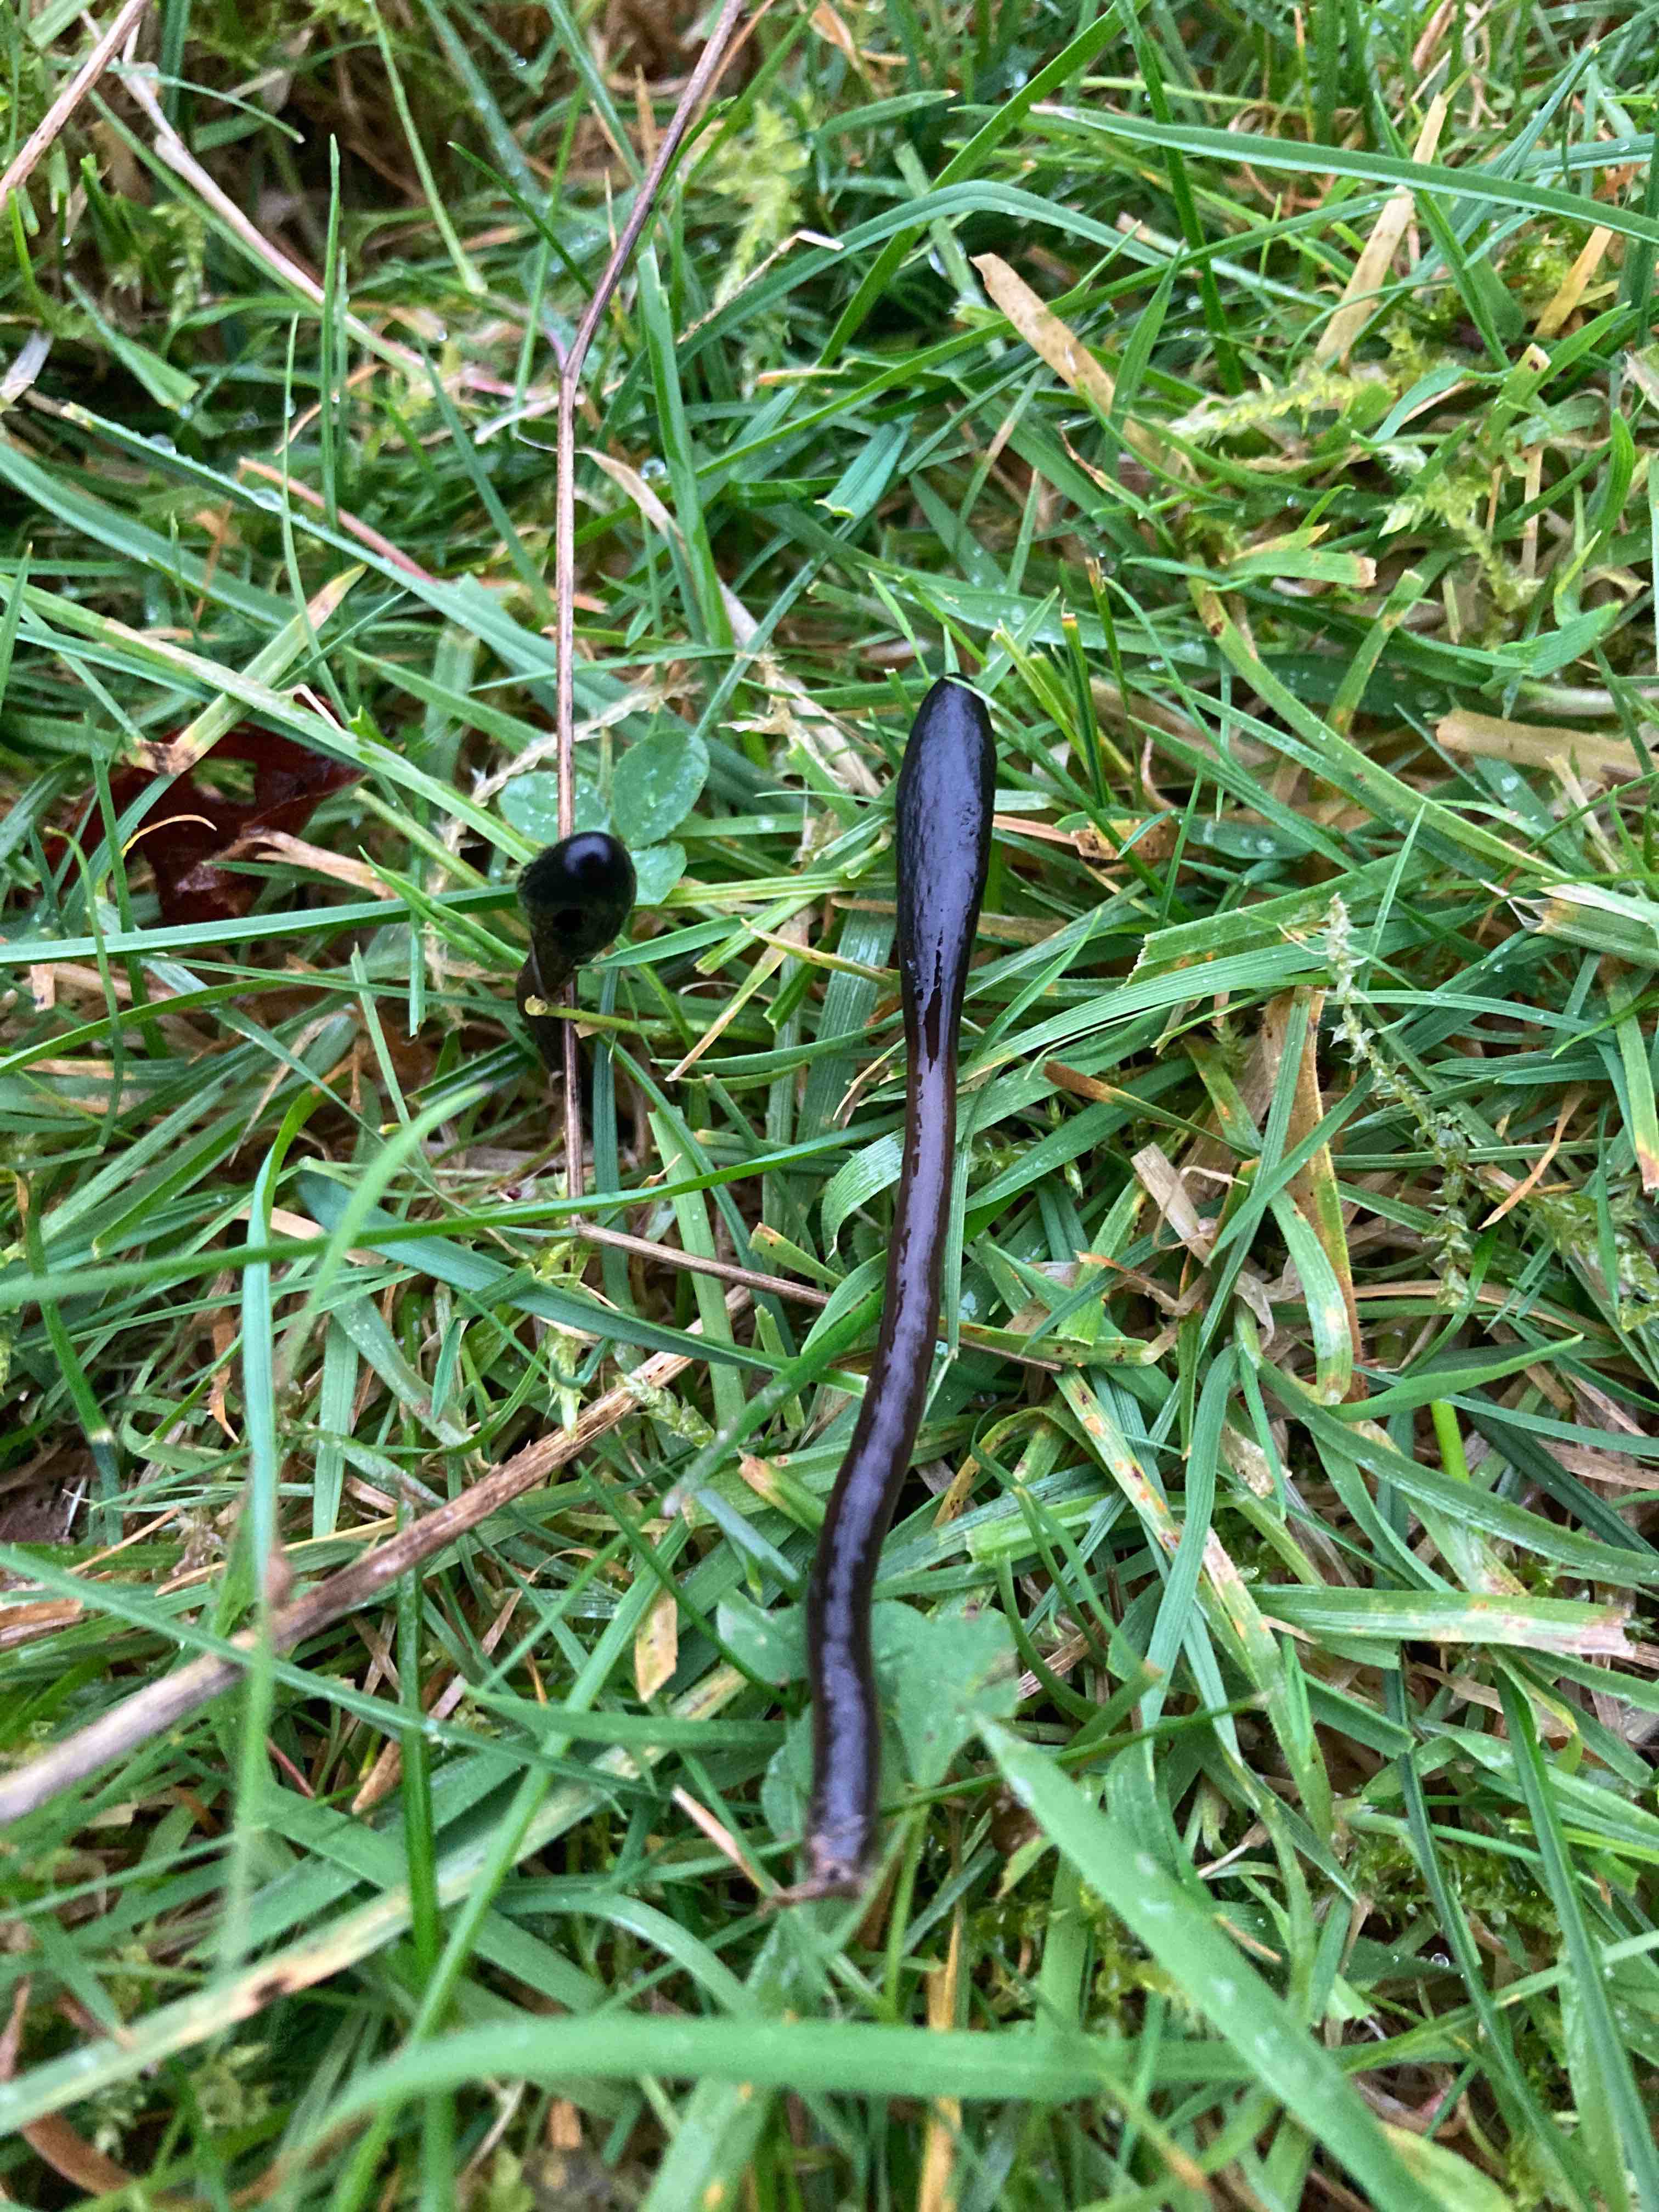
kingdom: Fungi
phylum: Ascomycota
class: Geoglossomycetes
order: Geoglossales
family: Geoglossaceae
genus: Glutinoglossum
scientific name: Glutinoglossum glutinosum
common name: slimet jordtunge
